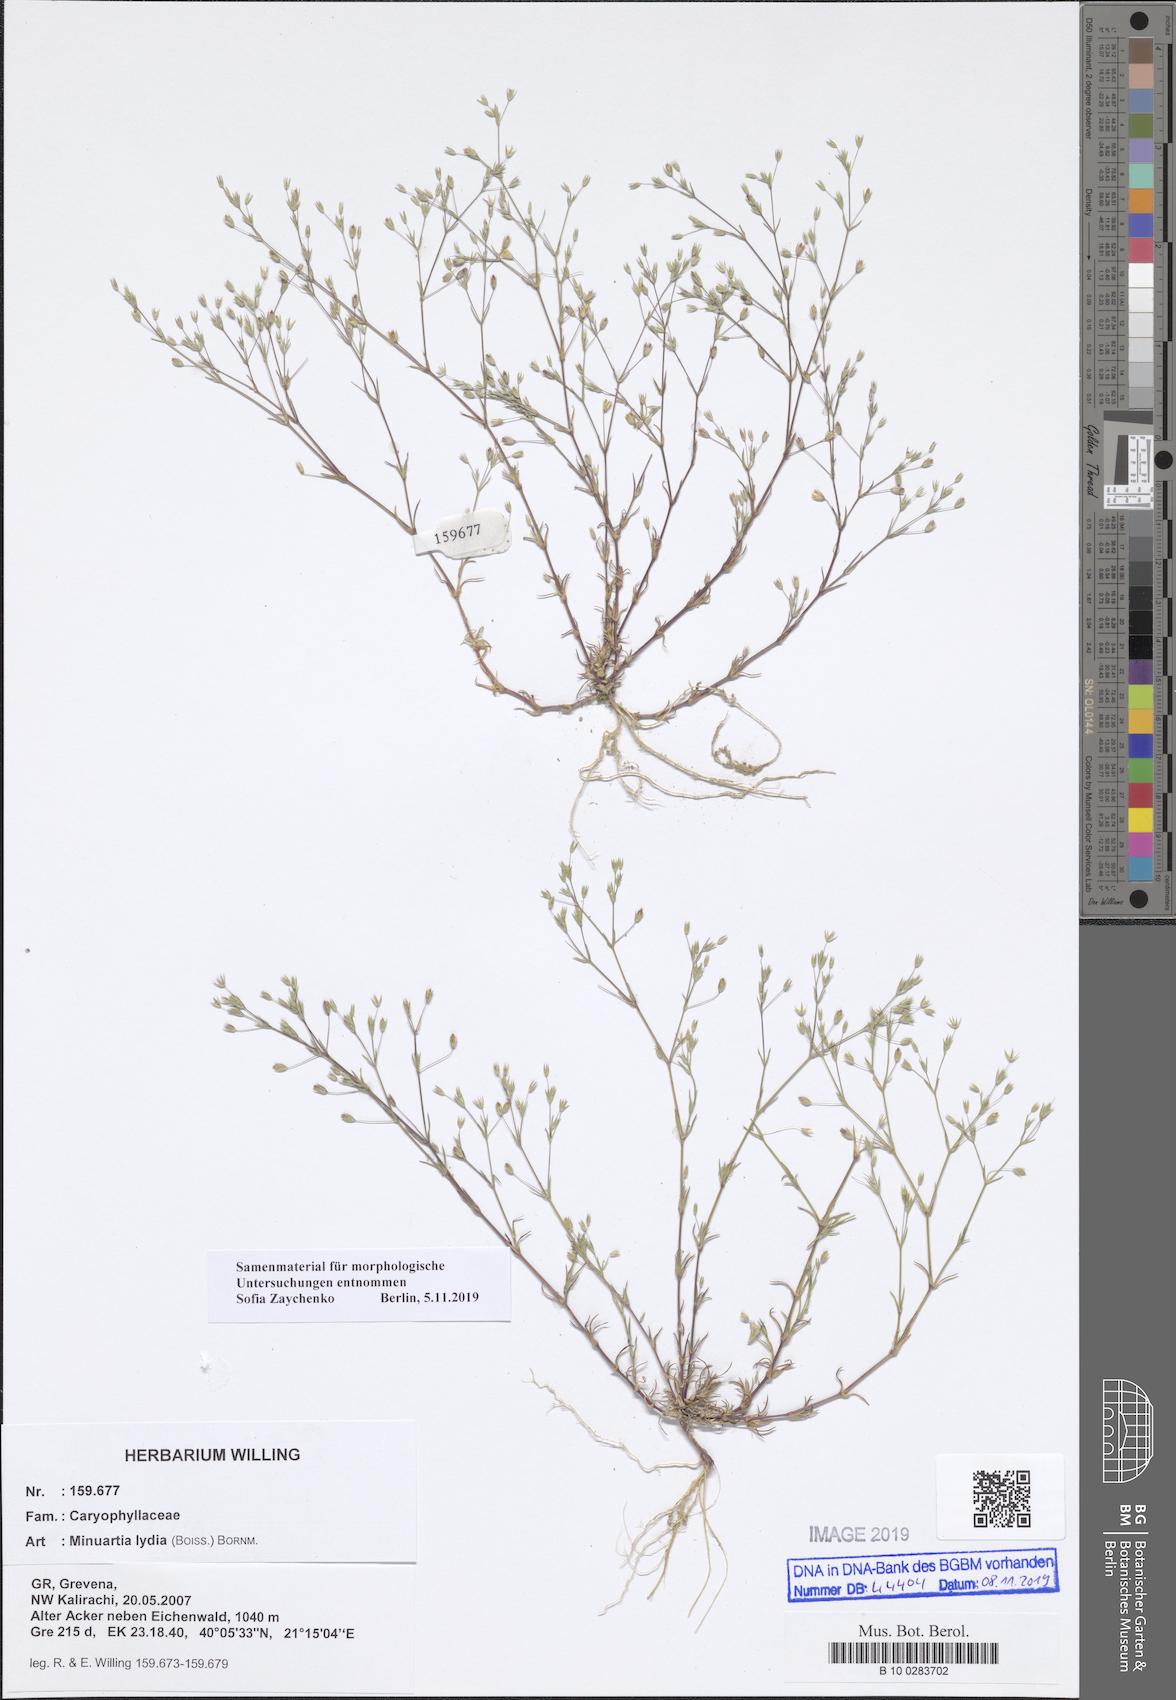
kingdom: Plantae
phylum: Tracheophyta
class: Magnoliopsida
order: Caryophyllales
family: Caryophyllaceae
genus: Sabulina
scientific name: Sabulina mesogitana
